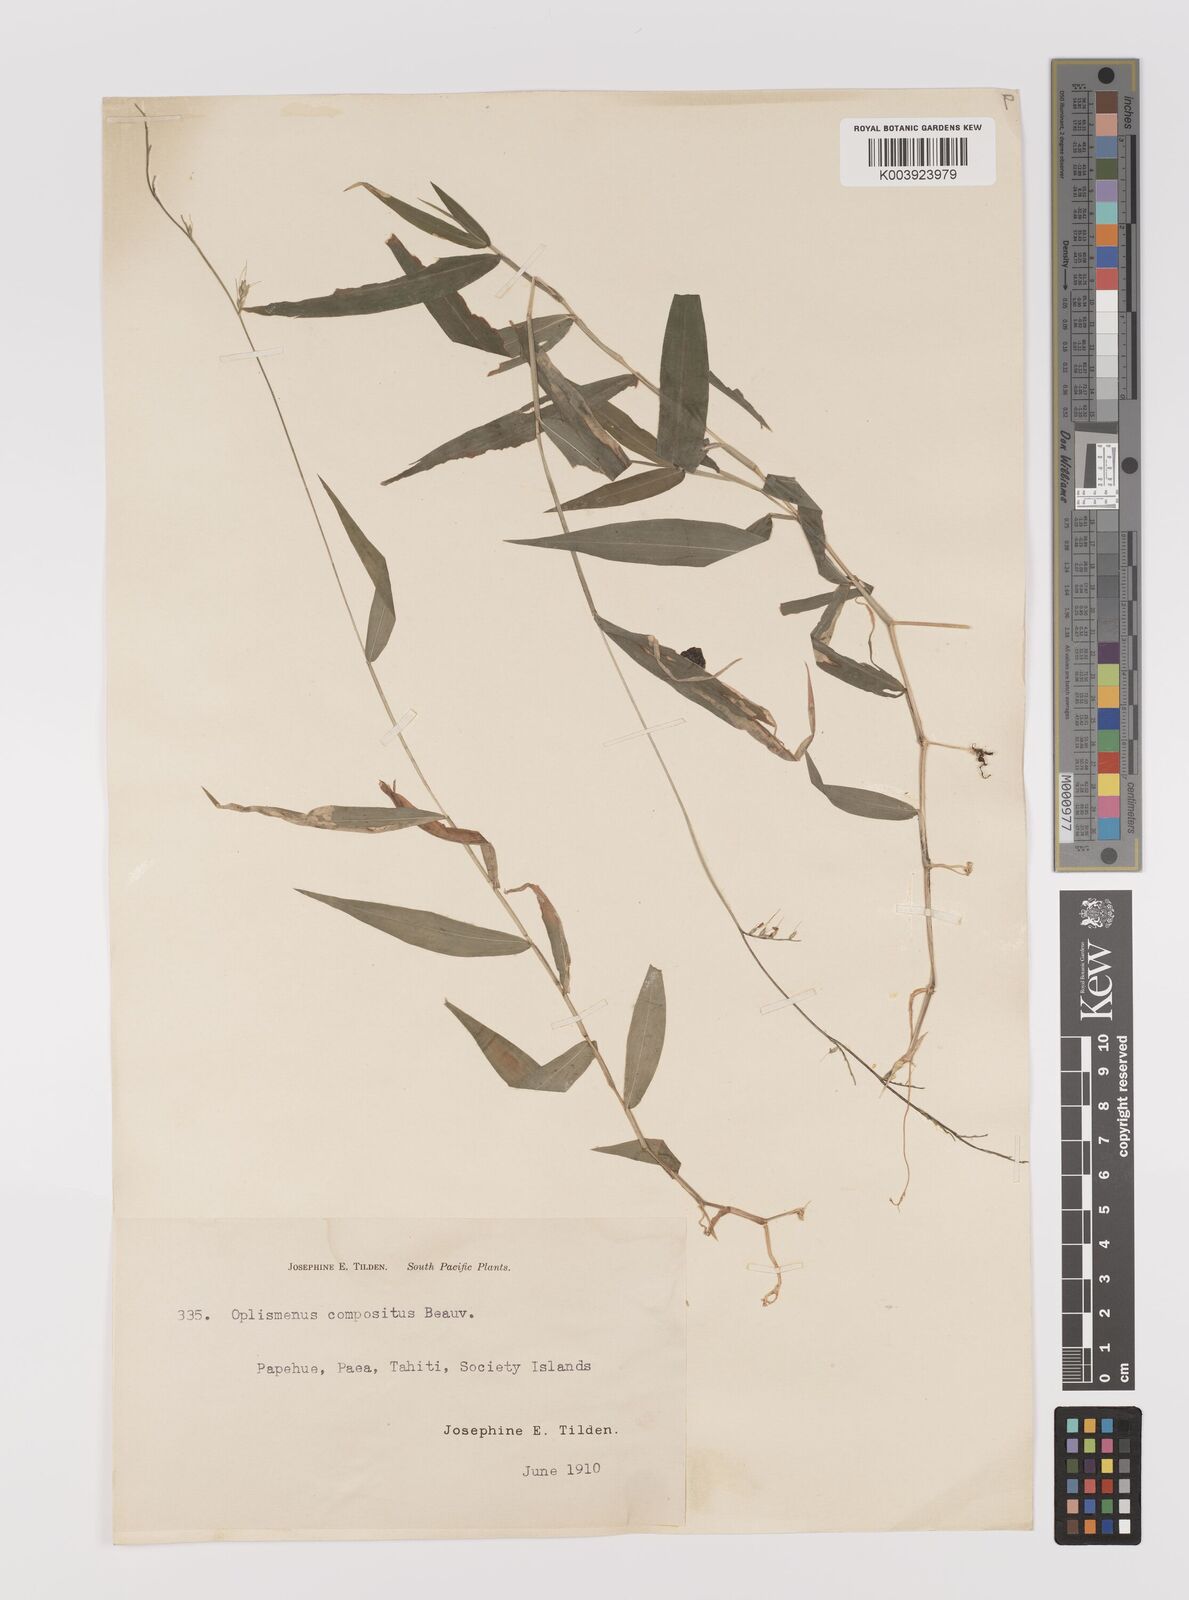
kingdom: Plantae
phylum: Tracheophyta
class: Liliopsida
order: Poales
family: Poaceae
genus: Oplismenus
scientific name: Oplismenus compositus
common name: Running mountain grass
